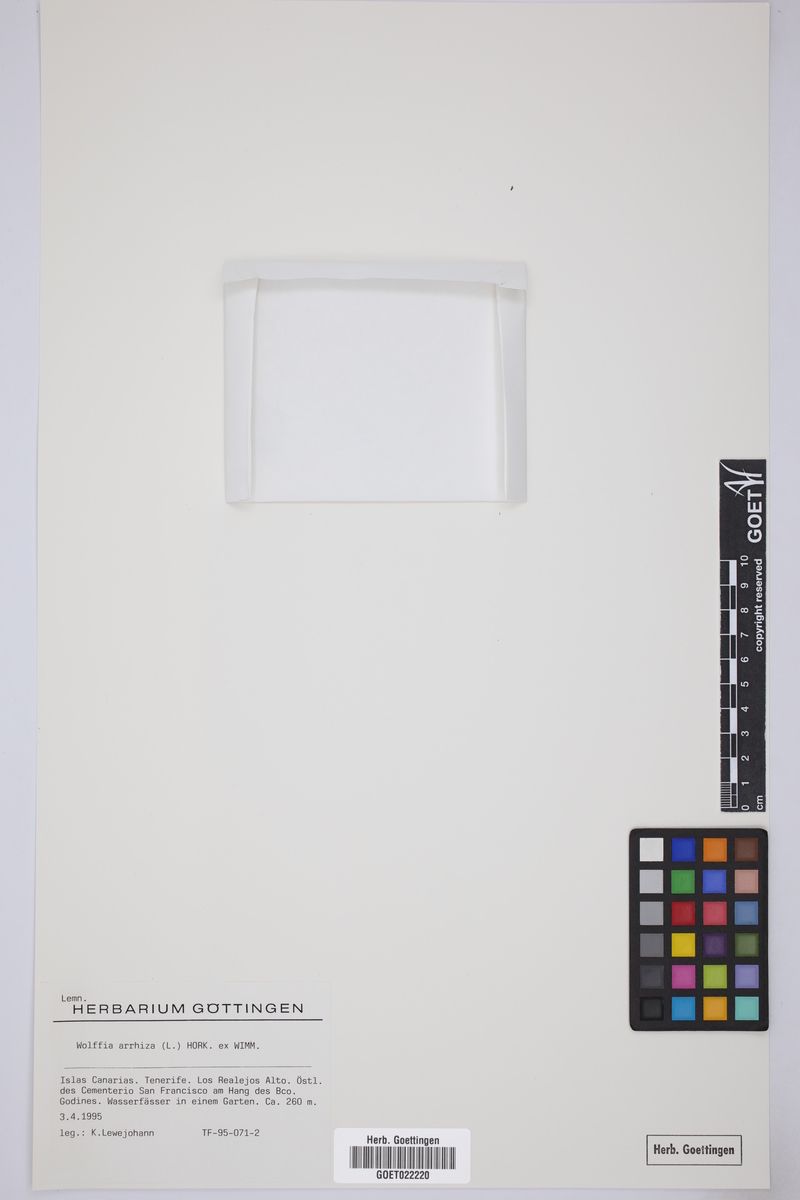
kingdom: Plantae
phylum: Tracheophyta
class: Liliopsida
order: Alismatales
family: Araceae
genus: Wolffia
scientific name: Wolffia arrhiza
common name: Rootless duckweed
